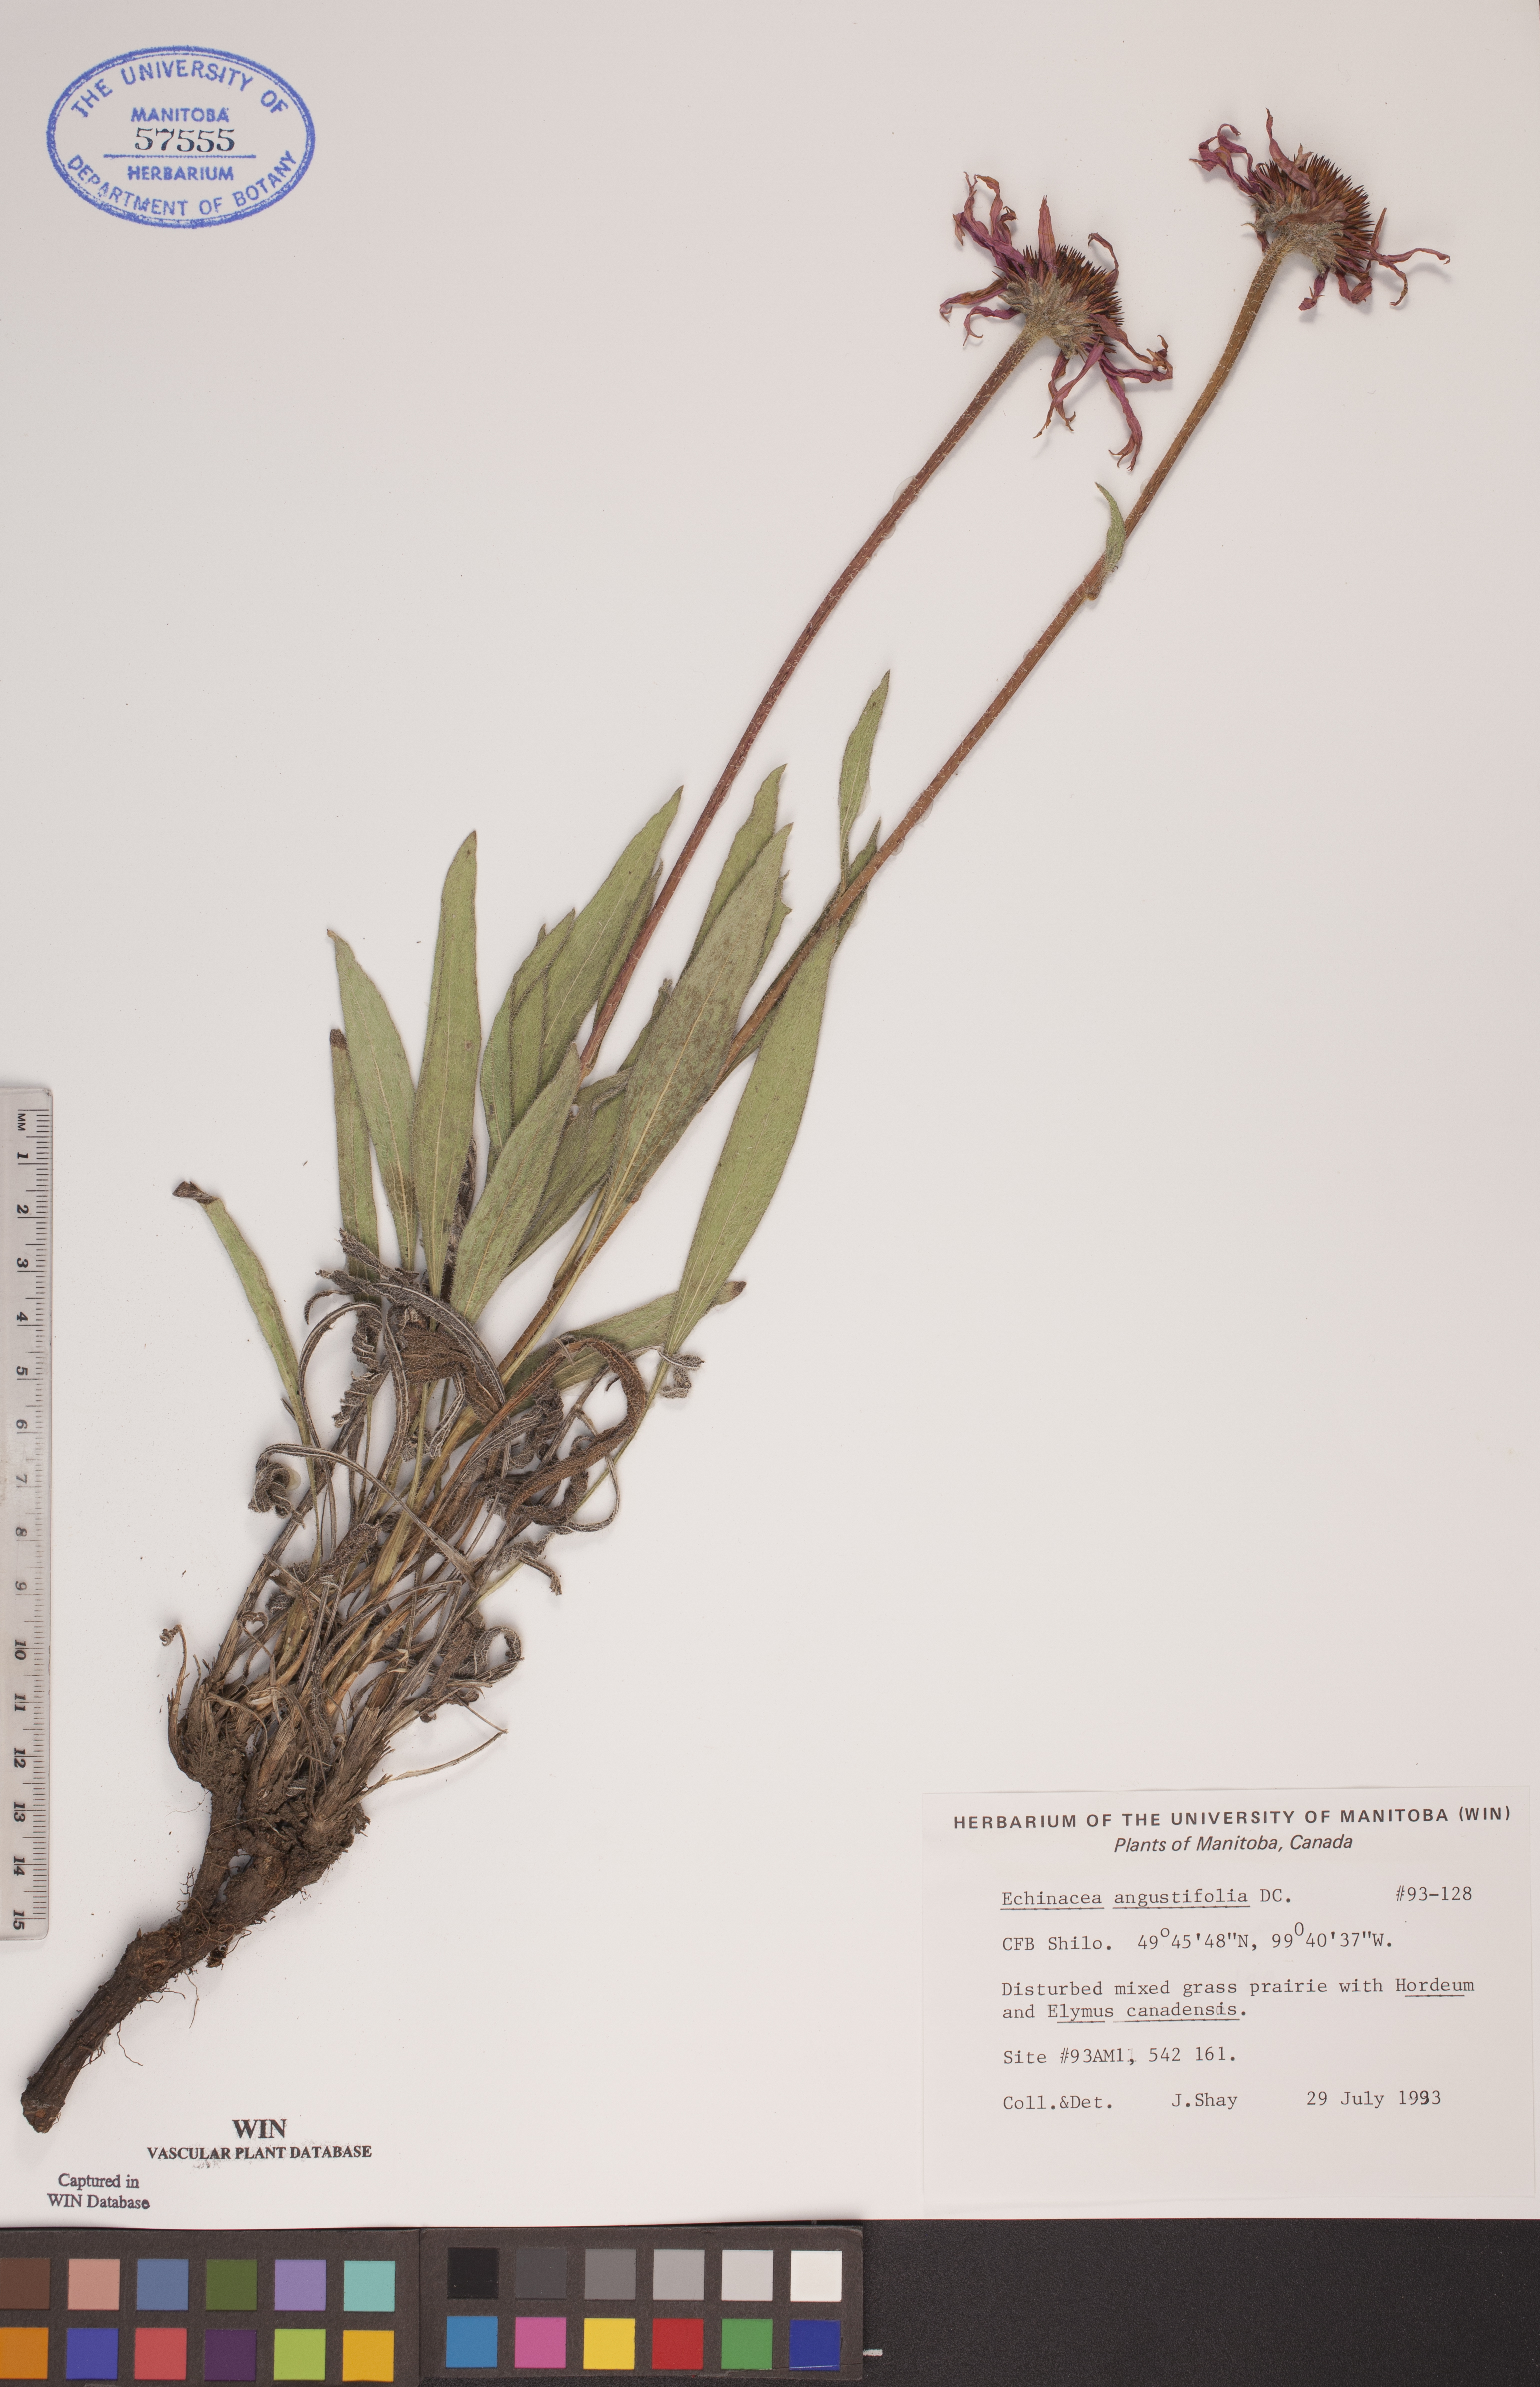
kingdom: Plantae
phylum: Tracheophyta
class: Magnoliopsida
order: Asterales
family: Asteraceae
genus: Echinacea
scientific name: Echinacea angustifolia
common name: Black-sampson echinacea
